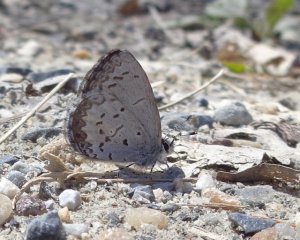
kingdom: Animalia
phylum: Arthropoda
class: Insecta
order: Lepidoptera
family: Lycaenidae
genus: Celastrina
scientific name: Celastrina lucia
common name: Northern Spring Azure
